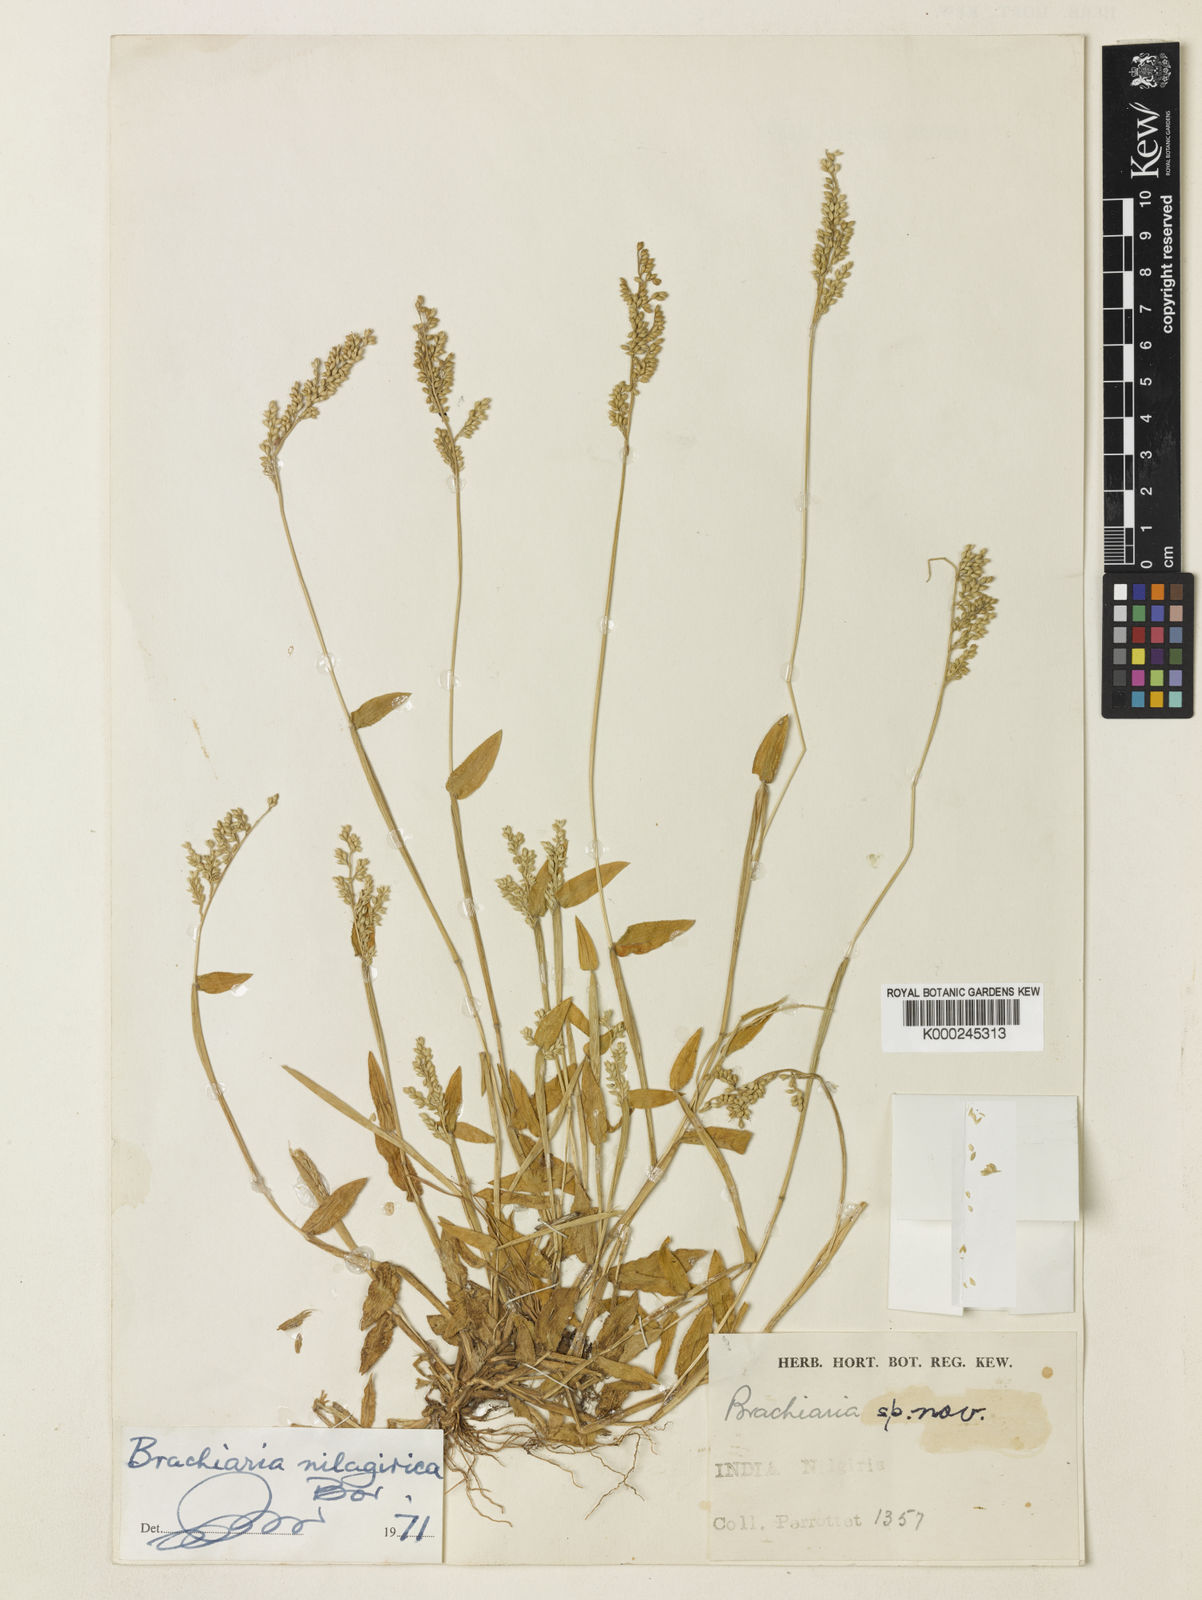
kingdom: Plantae
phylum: Tracheophyta
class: Liliopsida
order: Poales
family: Poaceae
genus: Urochloa
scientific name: Urochloa Brachiaria nilagirica
